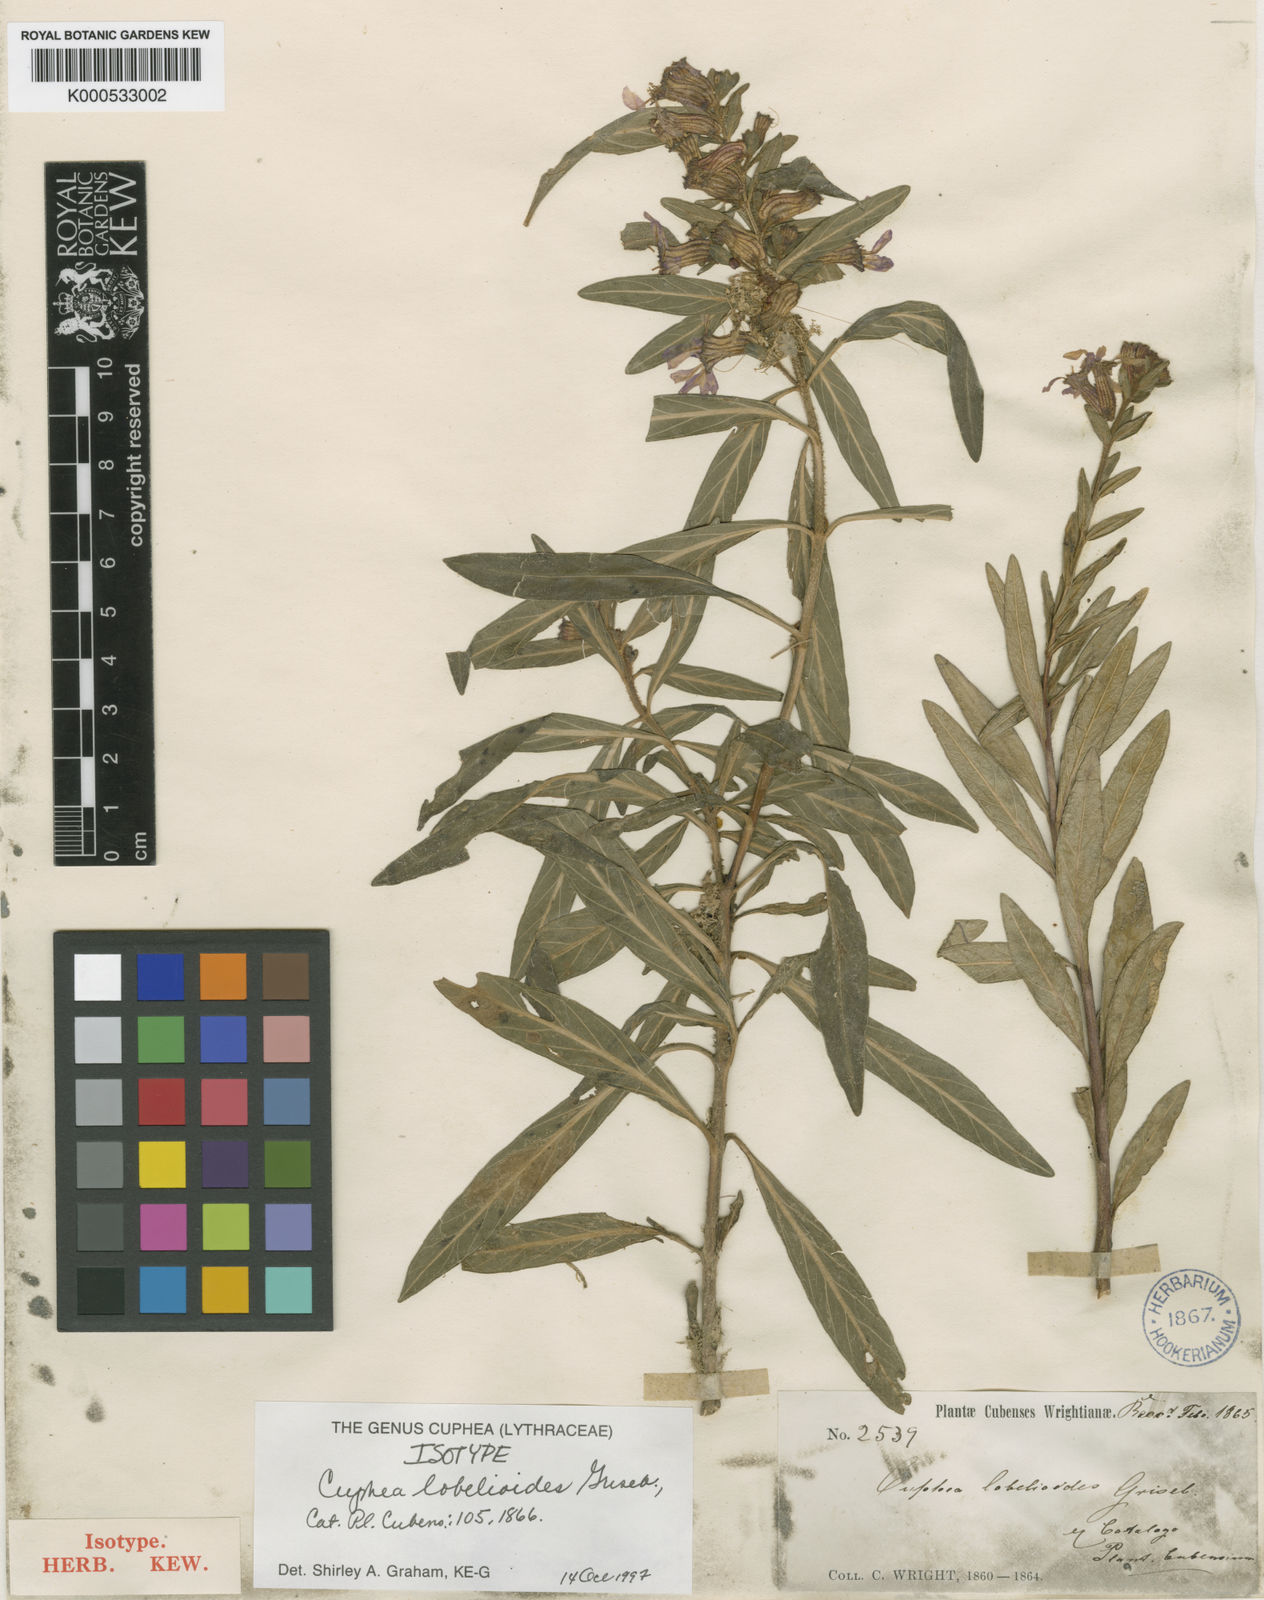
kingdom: Plantae
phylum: Tracheophyta
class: Magnoliopsida
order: Myrtales
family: Lythraceae
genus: Cuphea
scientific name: Cuphea lobelioides
